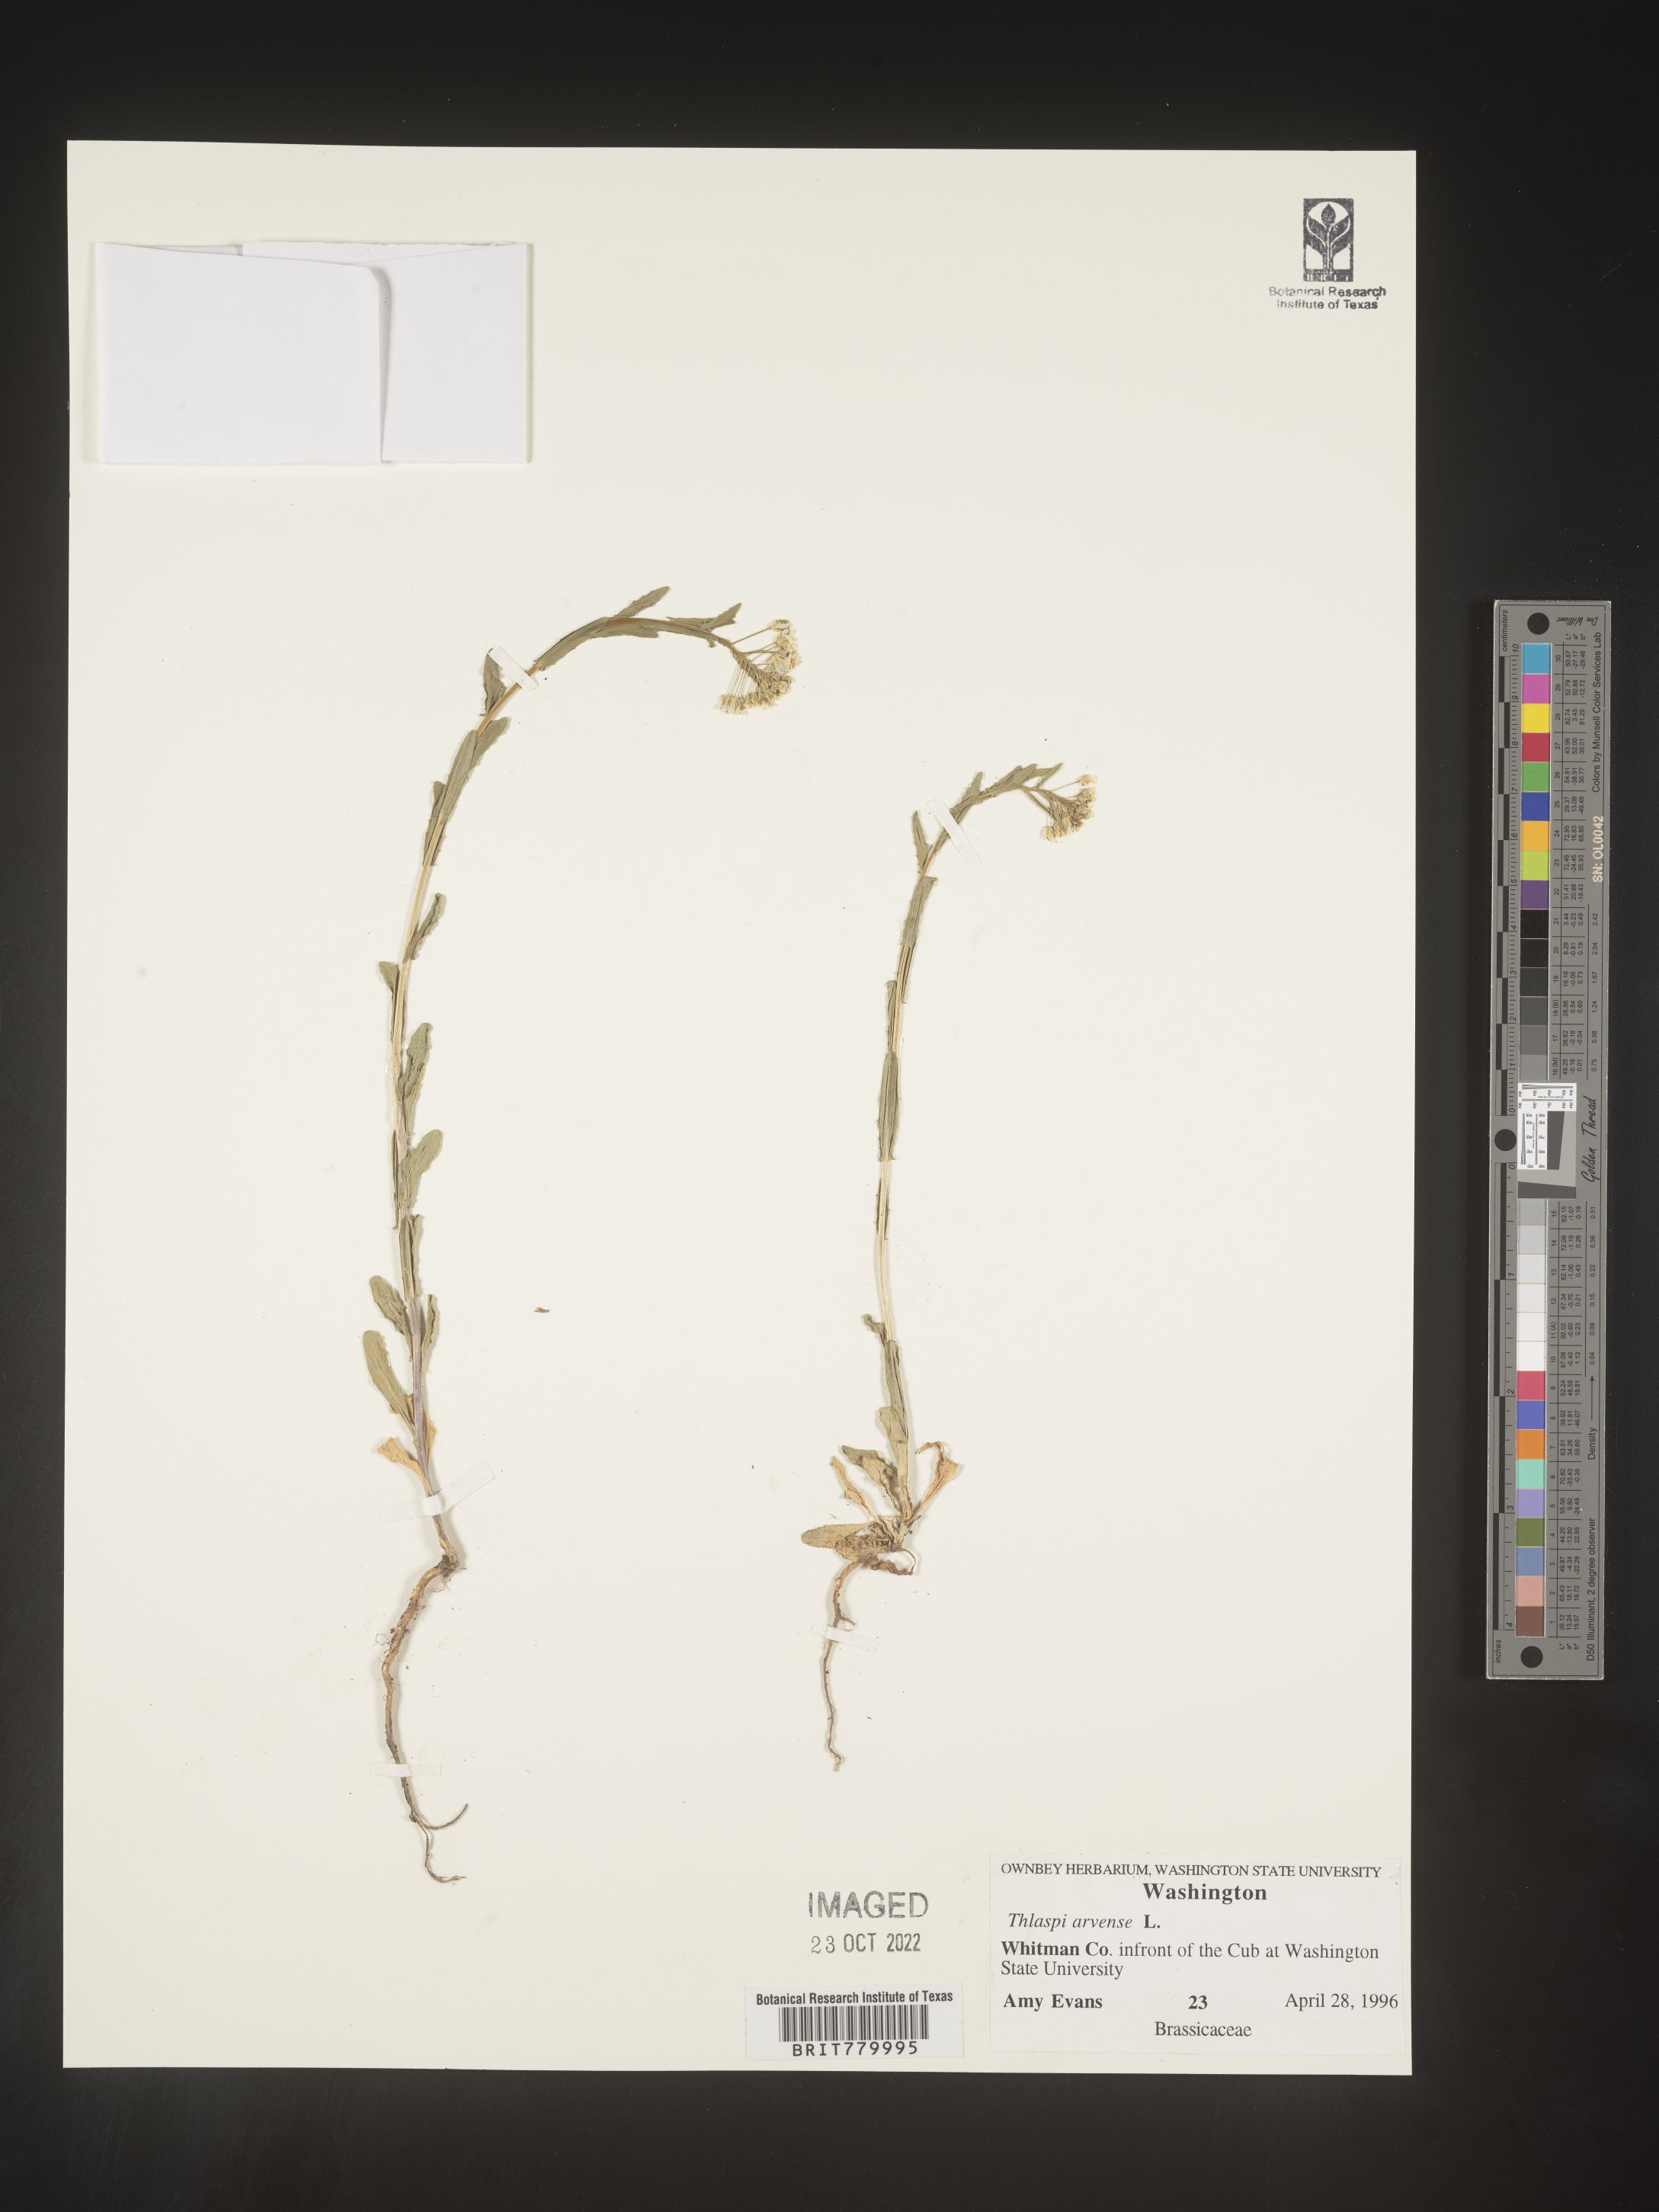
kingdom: Plantae
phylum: Tracheophyta
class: Magnoliopsida
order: Brassicales
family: Brassicaceae
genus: Thlaspi
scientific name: Thlaspi arvense
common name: Field pennycress
